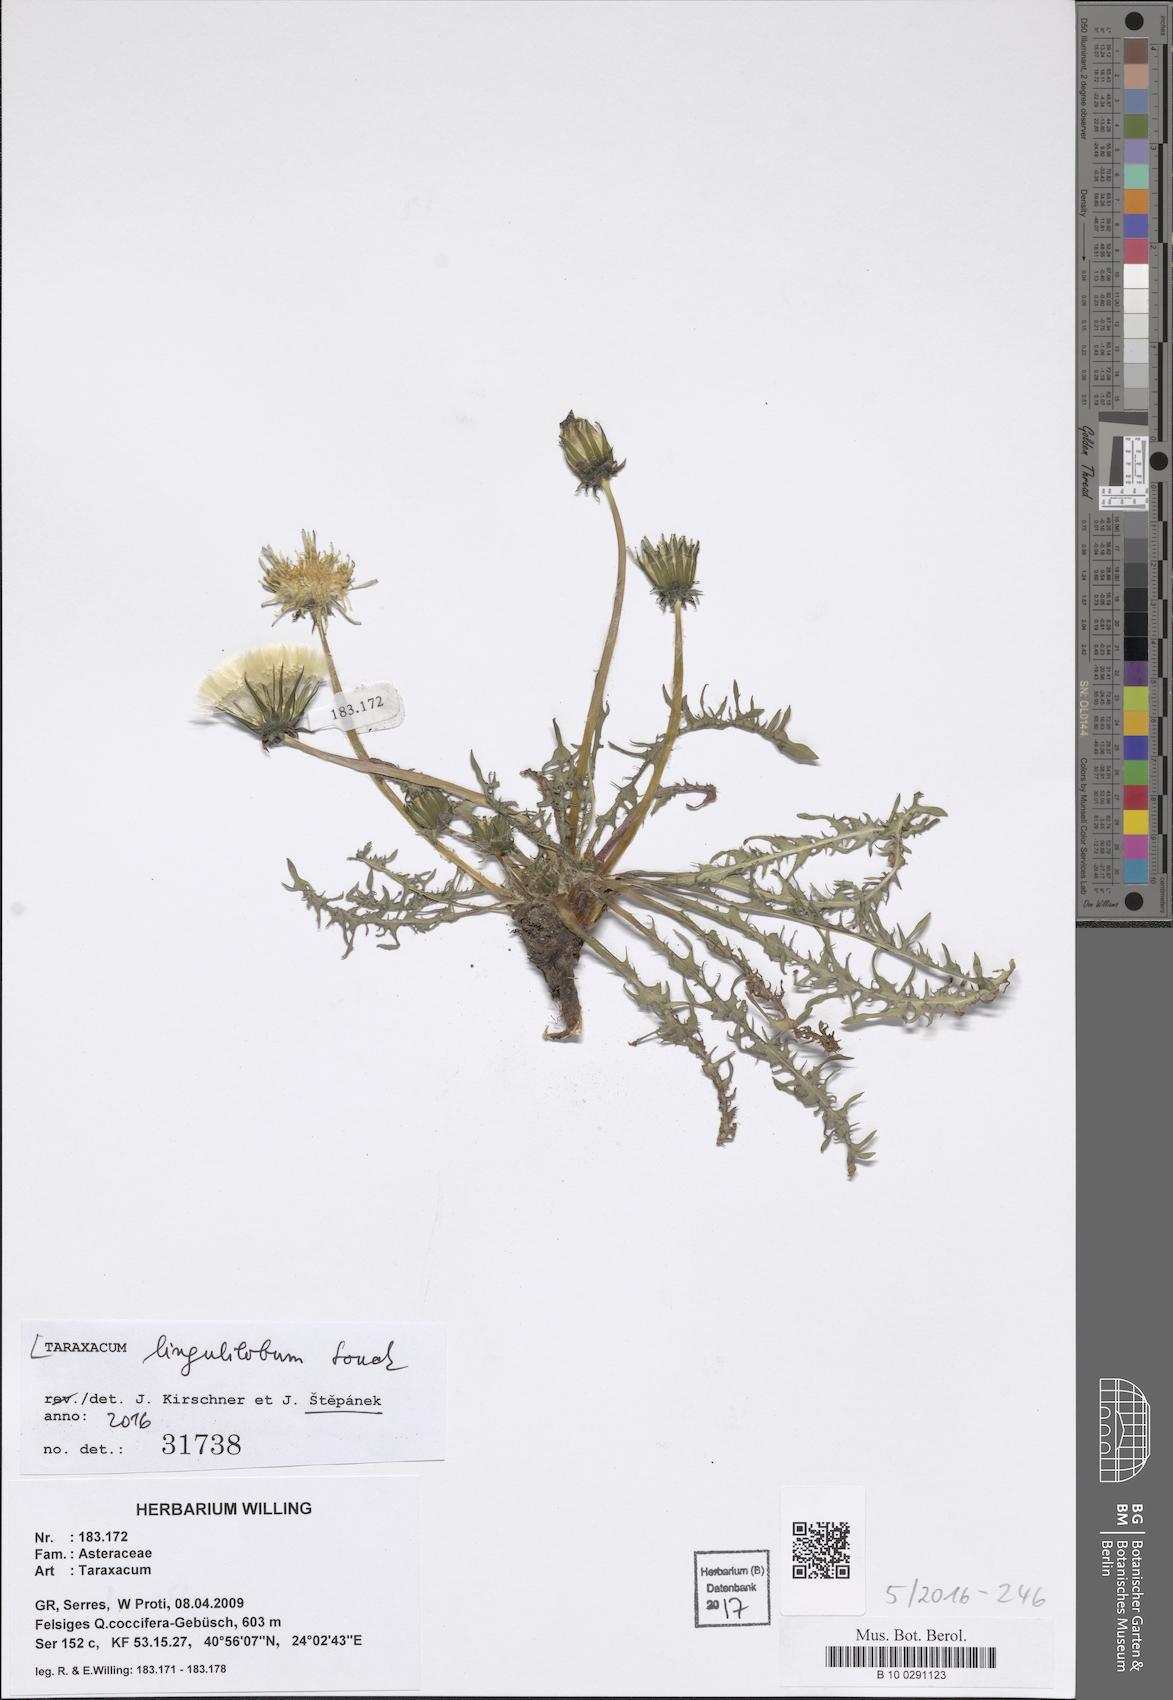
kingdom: Plantae
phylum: Tracheophyta
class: Magnoliopsida
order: Asterales
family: Asteraceae
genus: Taraxacum
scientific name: Taraxacum lingulilobum
